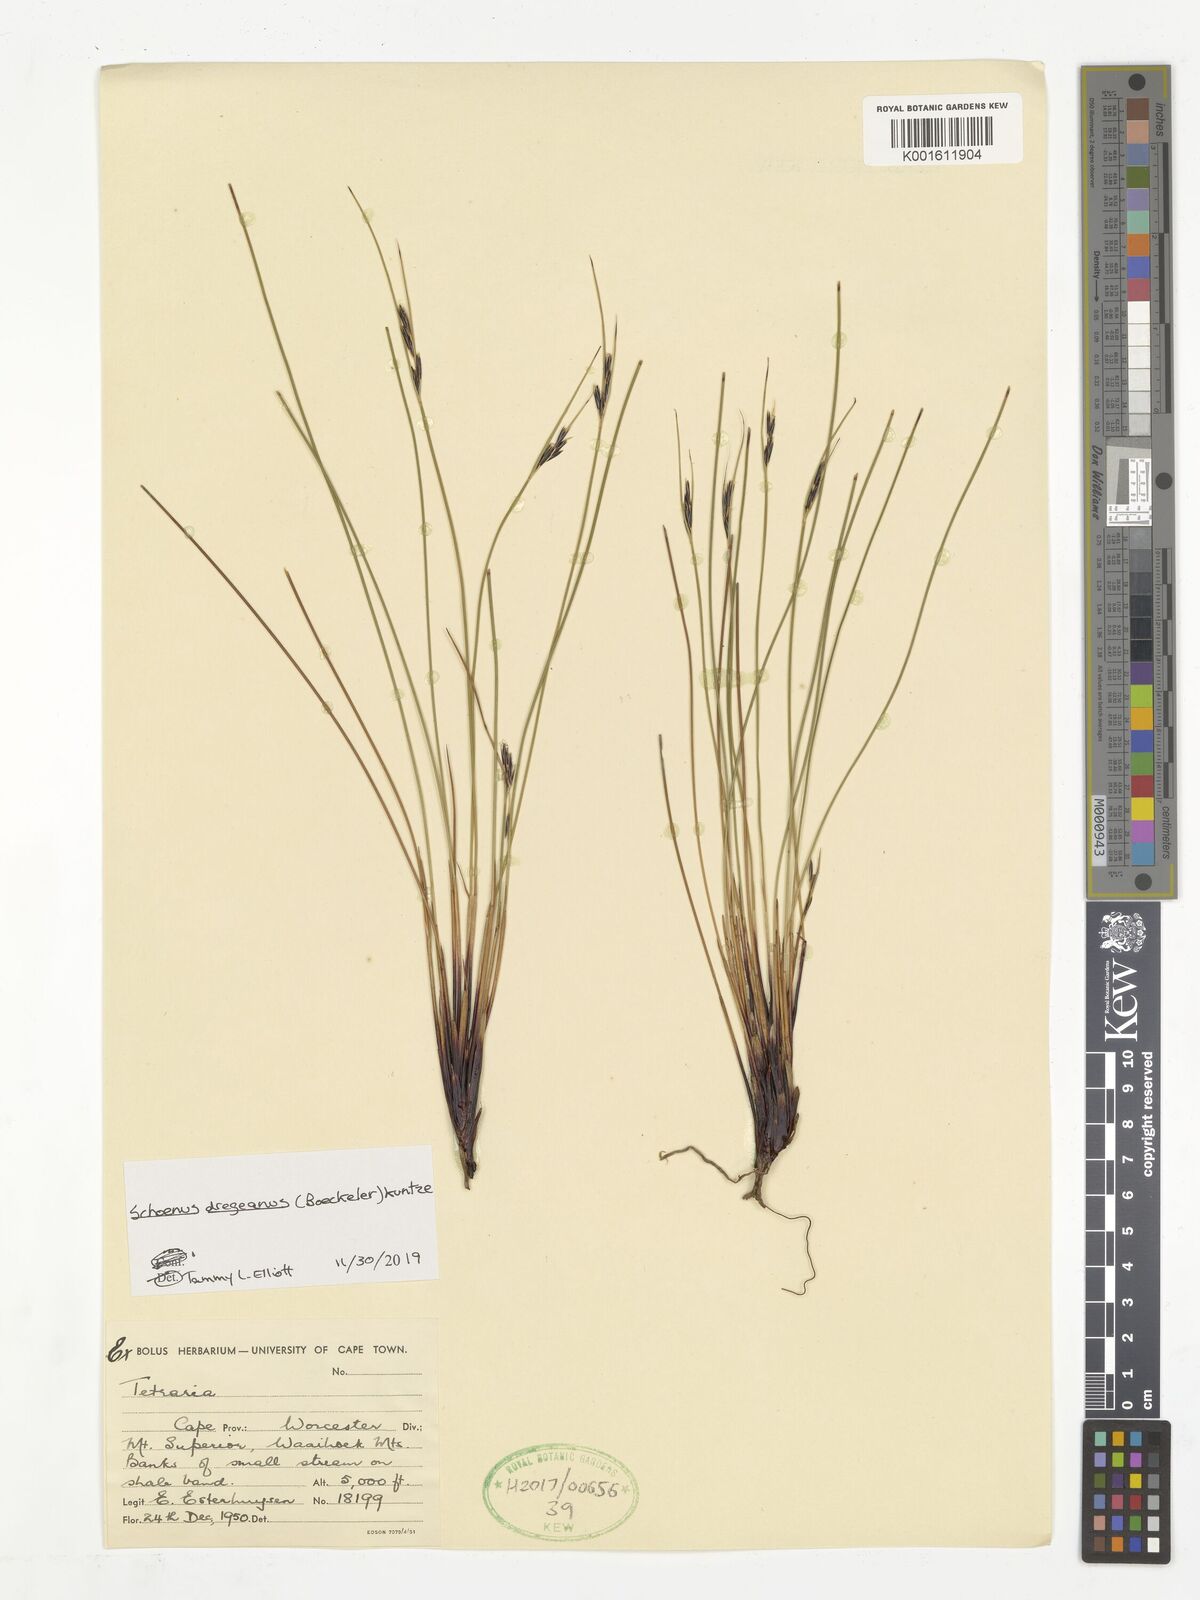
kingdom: Plantae
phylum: Tracheophyta
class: Liliopsida
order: Poales
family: Cyperaceae
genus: Schoenus
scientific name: Schoenus dregeanus
